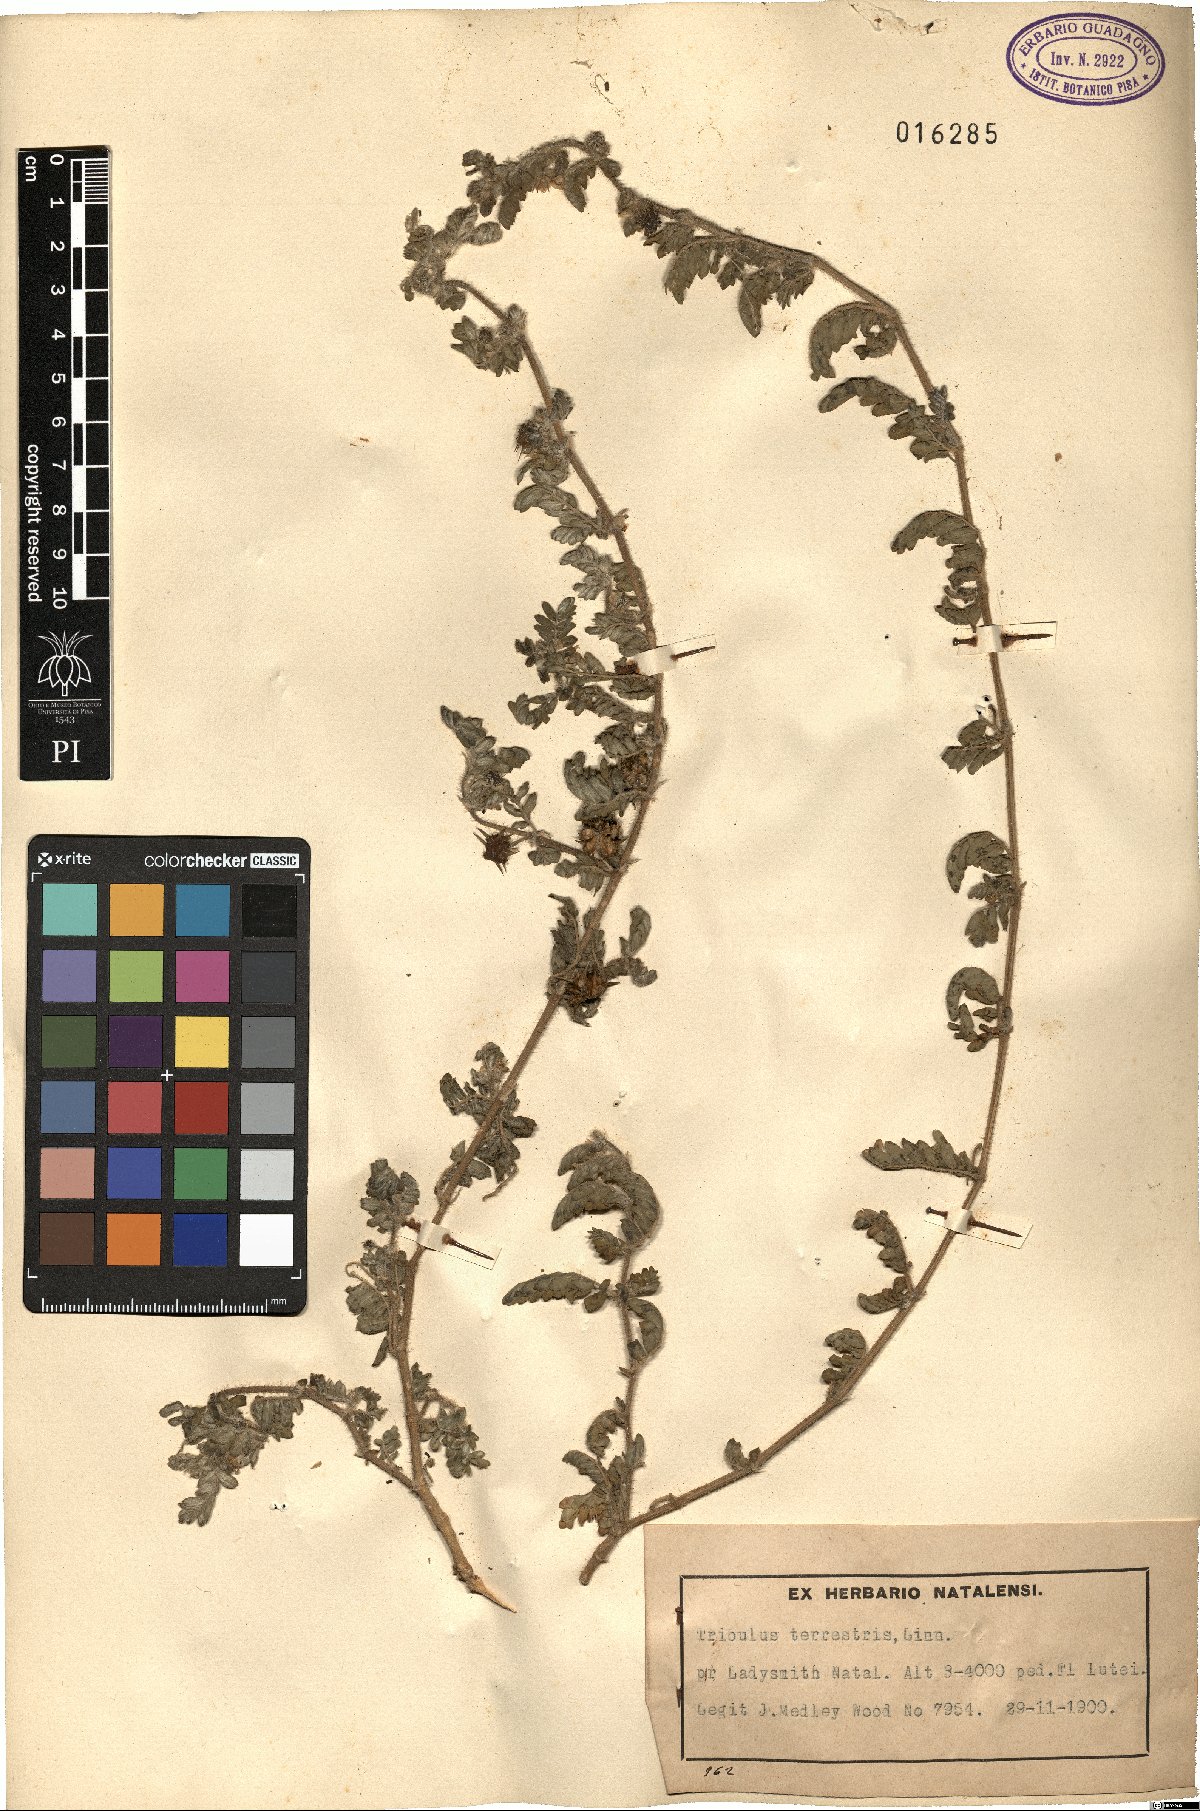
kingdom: Plantae
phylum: Tracheophyta
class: Magnoliopsida
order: Zygophyllales
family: Zygophyllaceae
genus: Tribulus
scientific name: Tribulus terrestris
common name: Puncturevine
